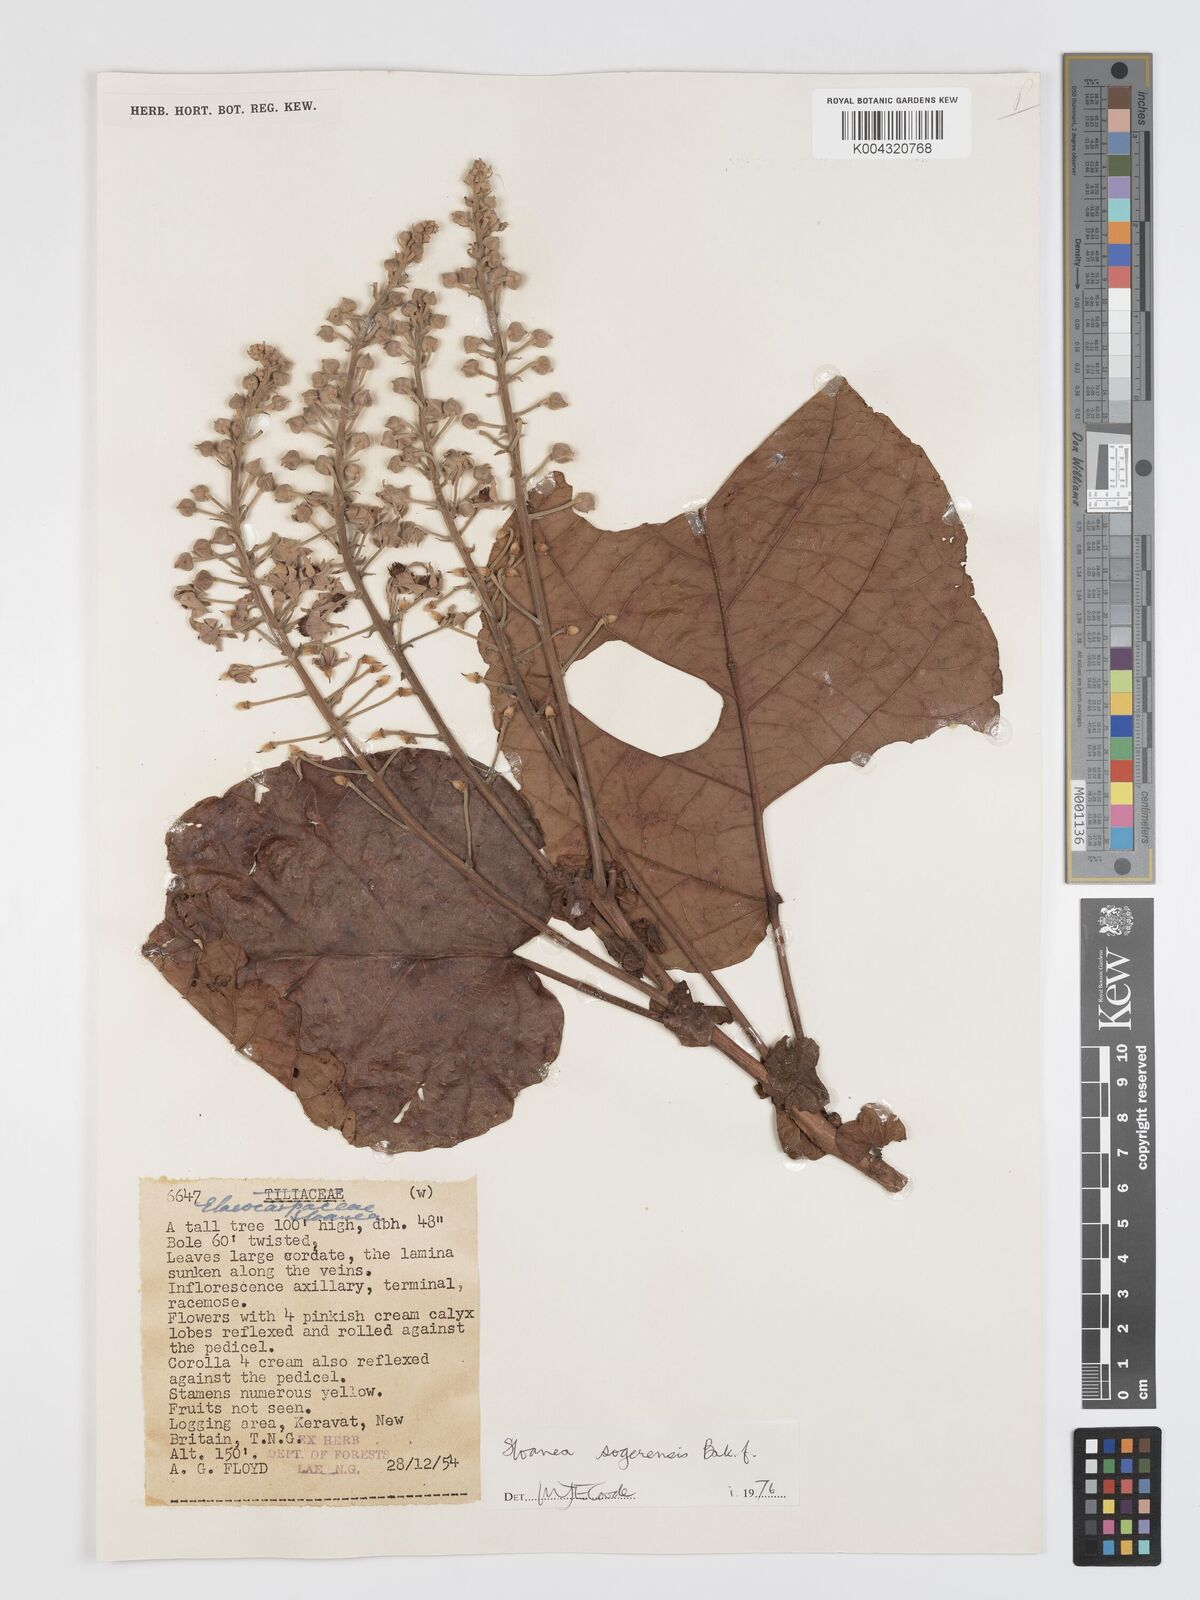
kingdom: Plantae
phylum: Tracheophyta
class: Magnoliopsida
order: Oxalidales
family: Elaeocarpaceae
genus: Sloanea
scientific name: Sloanea sogerensis
